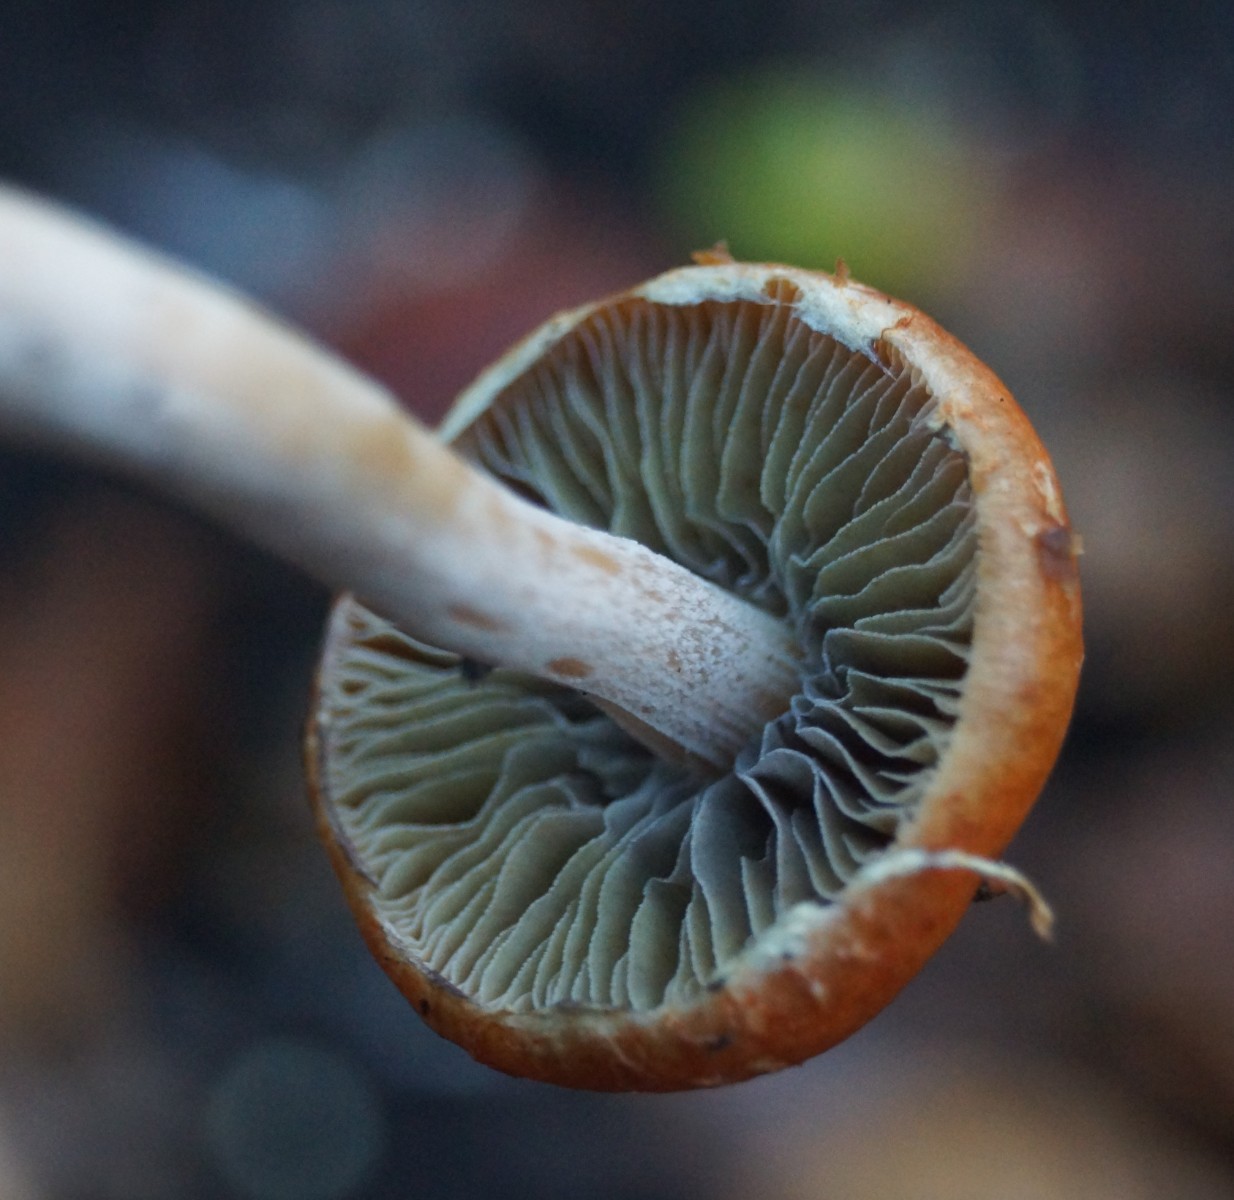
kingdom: Fungi
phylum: Basidiomycota
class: Agaricomycetes
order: Agaricales
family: Strophariaceae
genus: Leratiomyces
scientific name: Leratiomyces ceres
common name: orange bredblad
